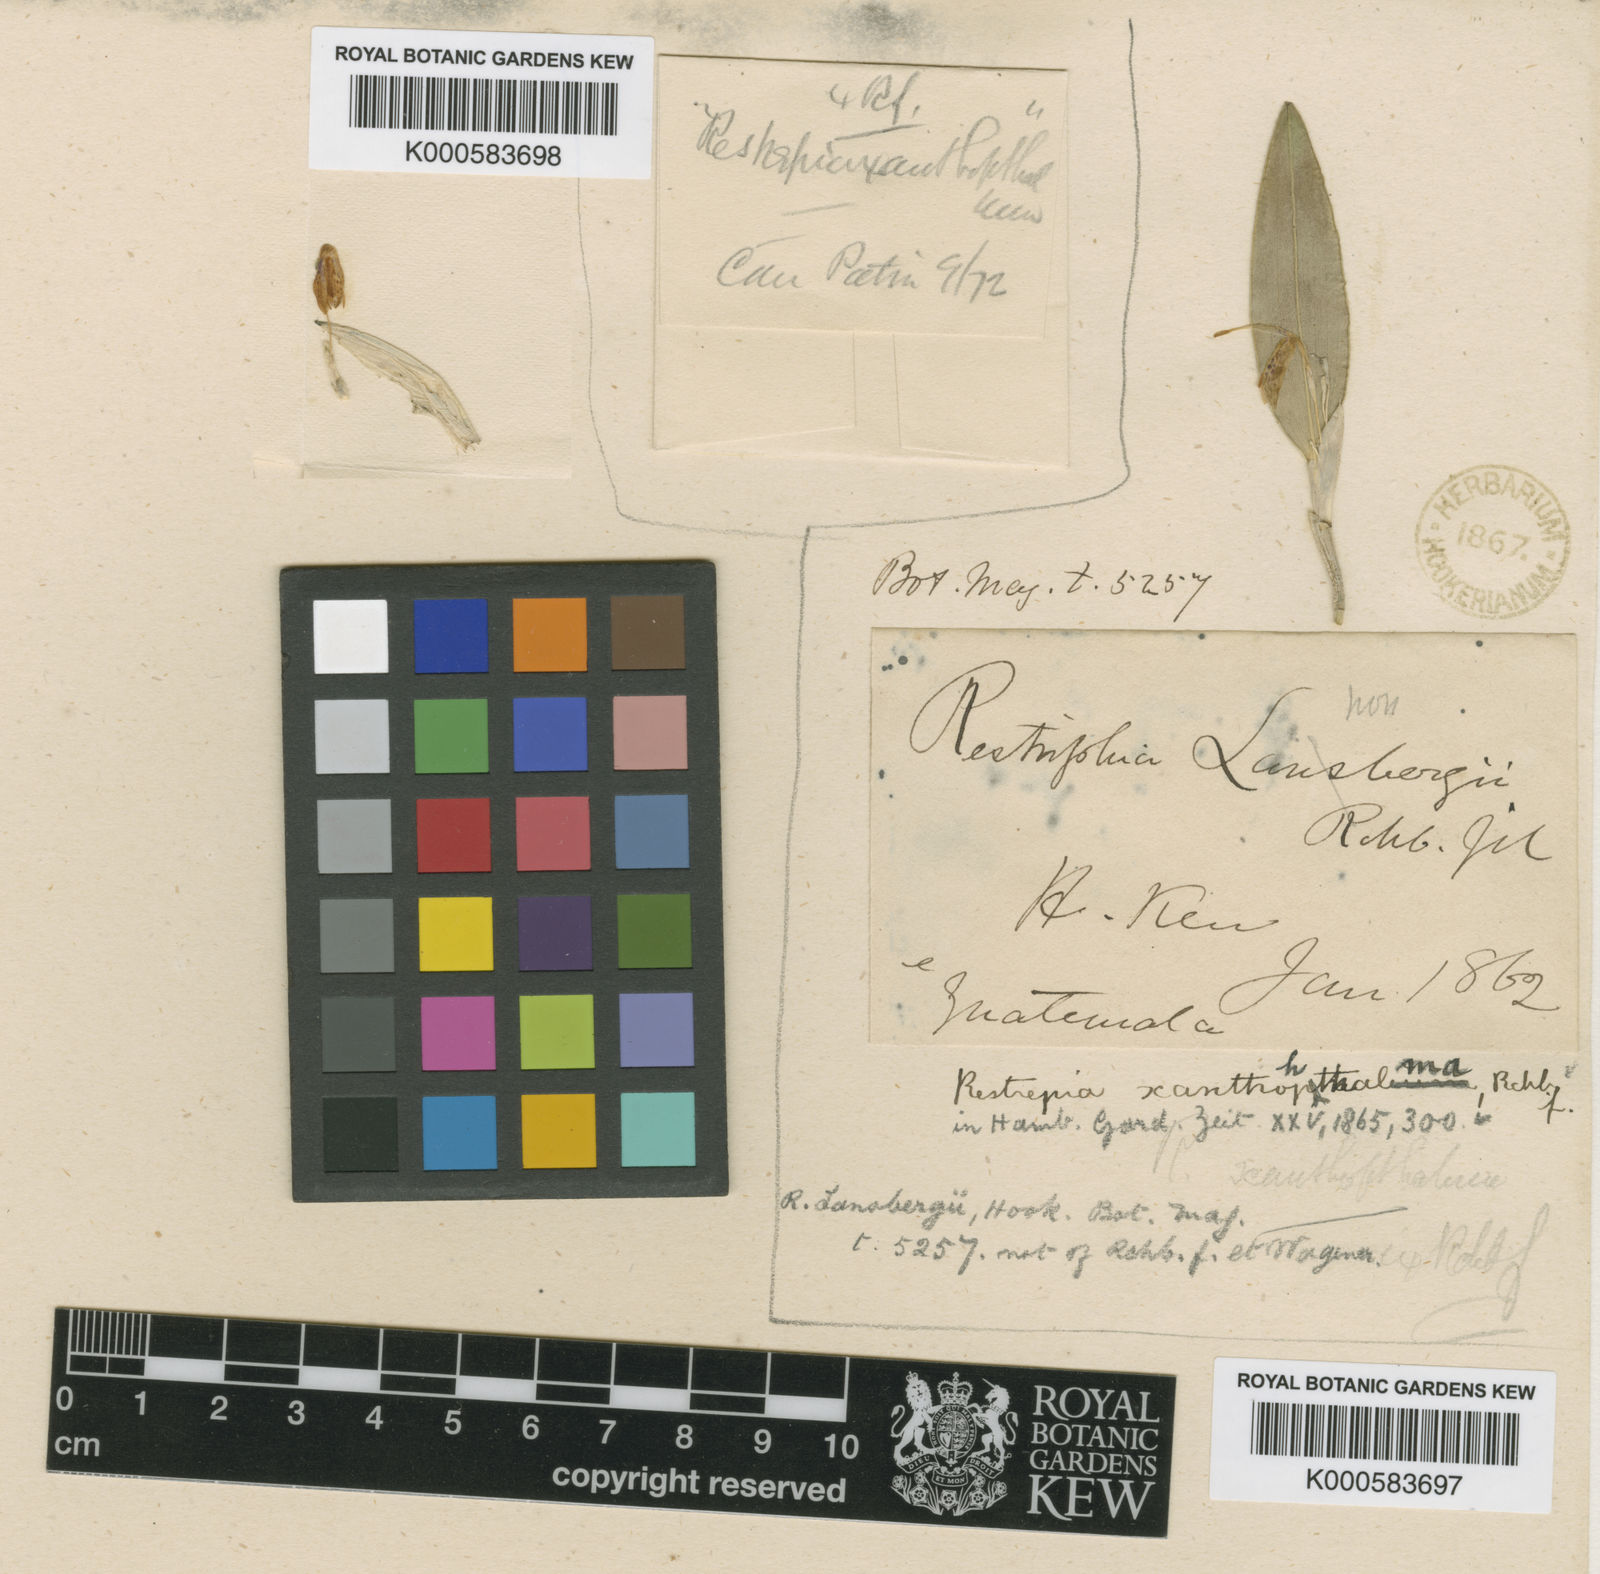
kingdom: Plantae
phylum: Tracheophyta
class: Liliopsida
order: Asparagales
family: Orchidaceae
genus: Restrepia
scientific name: Restrepia muscifera
